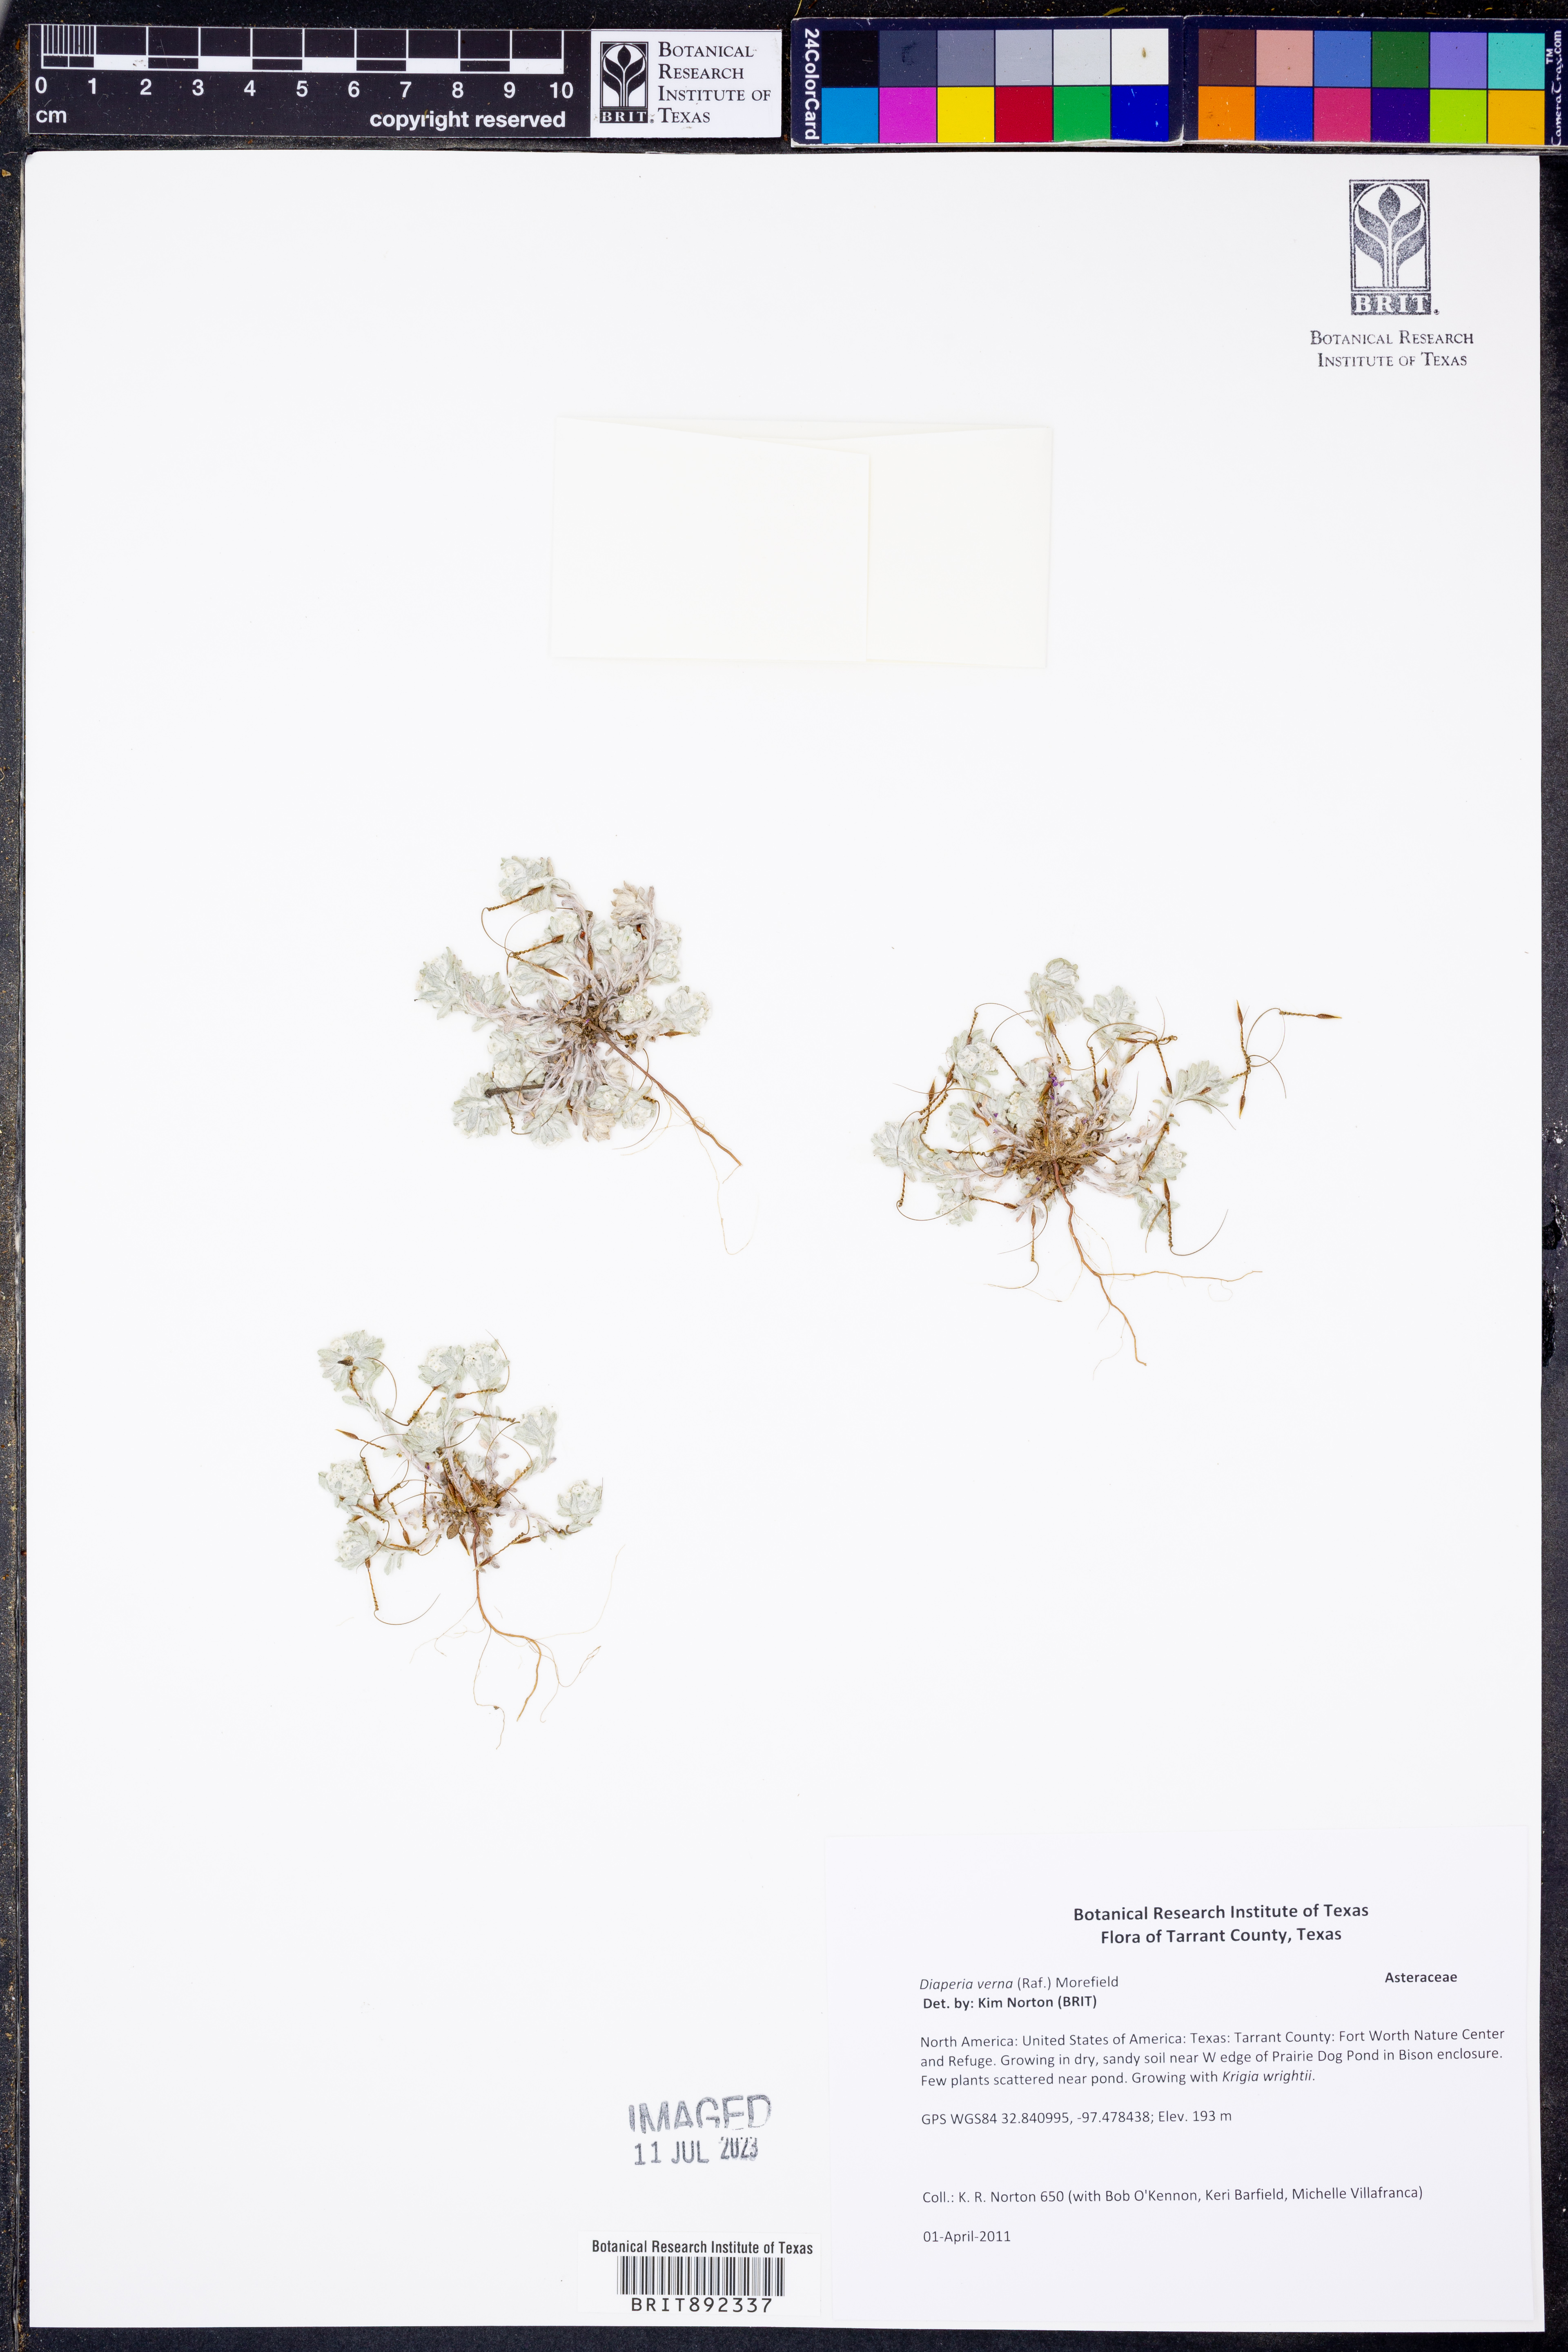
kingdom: Plantae
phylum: Tracheophyta
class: Magnoliopsida
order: Asterales
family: Asteraceae
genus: Diaperia
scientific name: Diaperia verna
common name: Many-stem rabbit-tobacco
